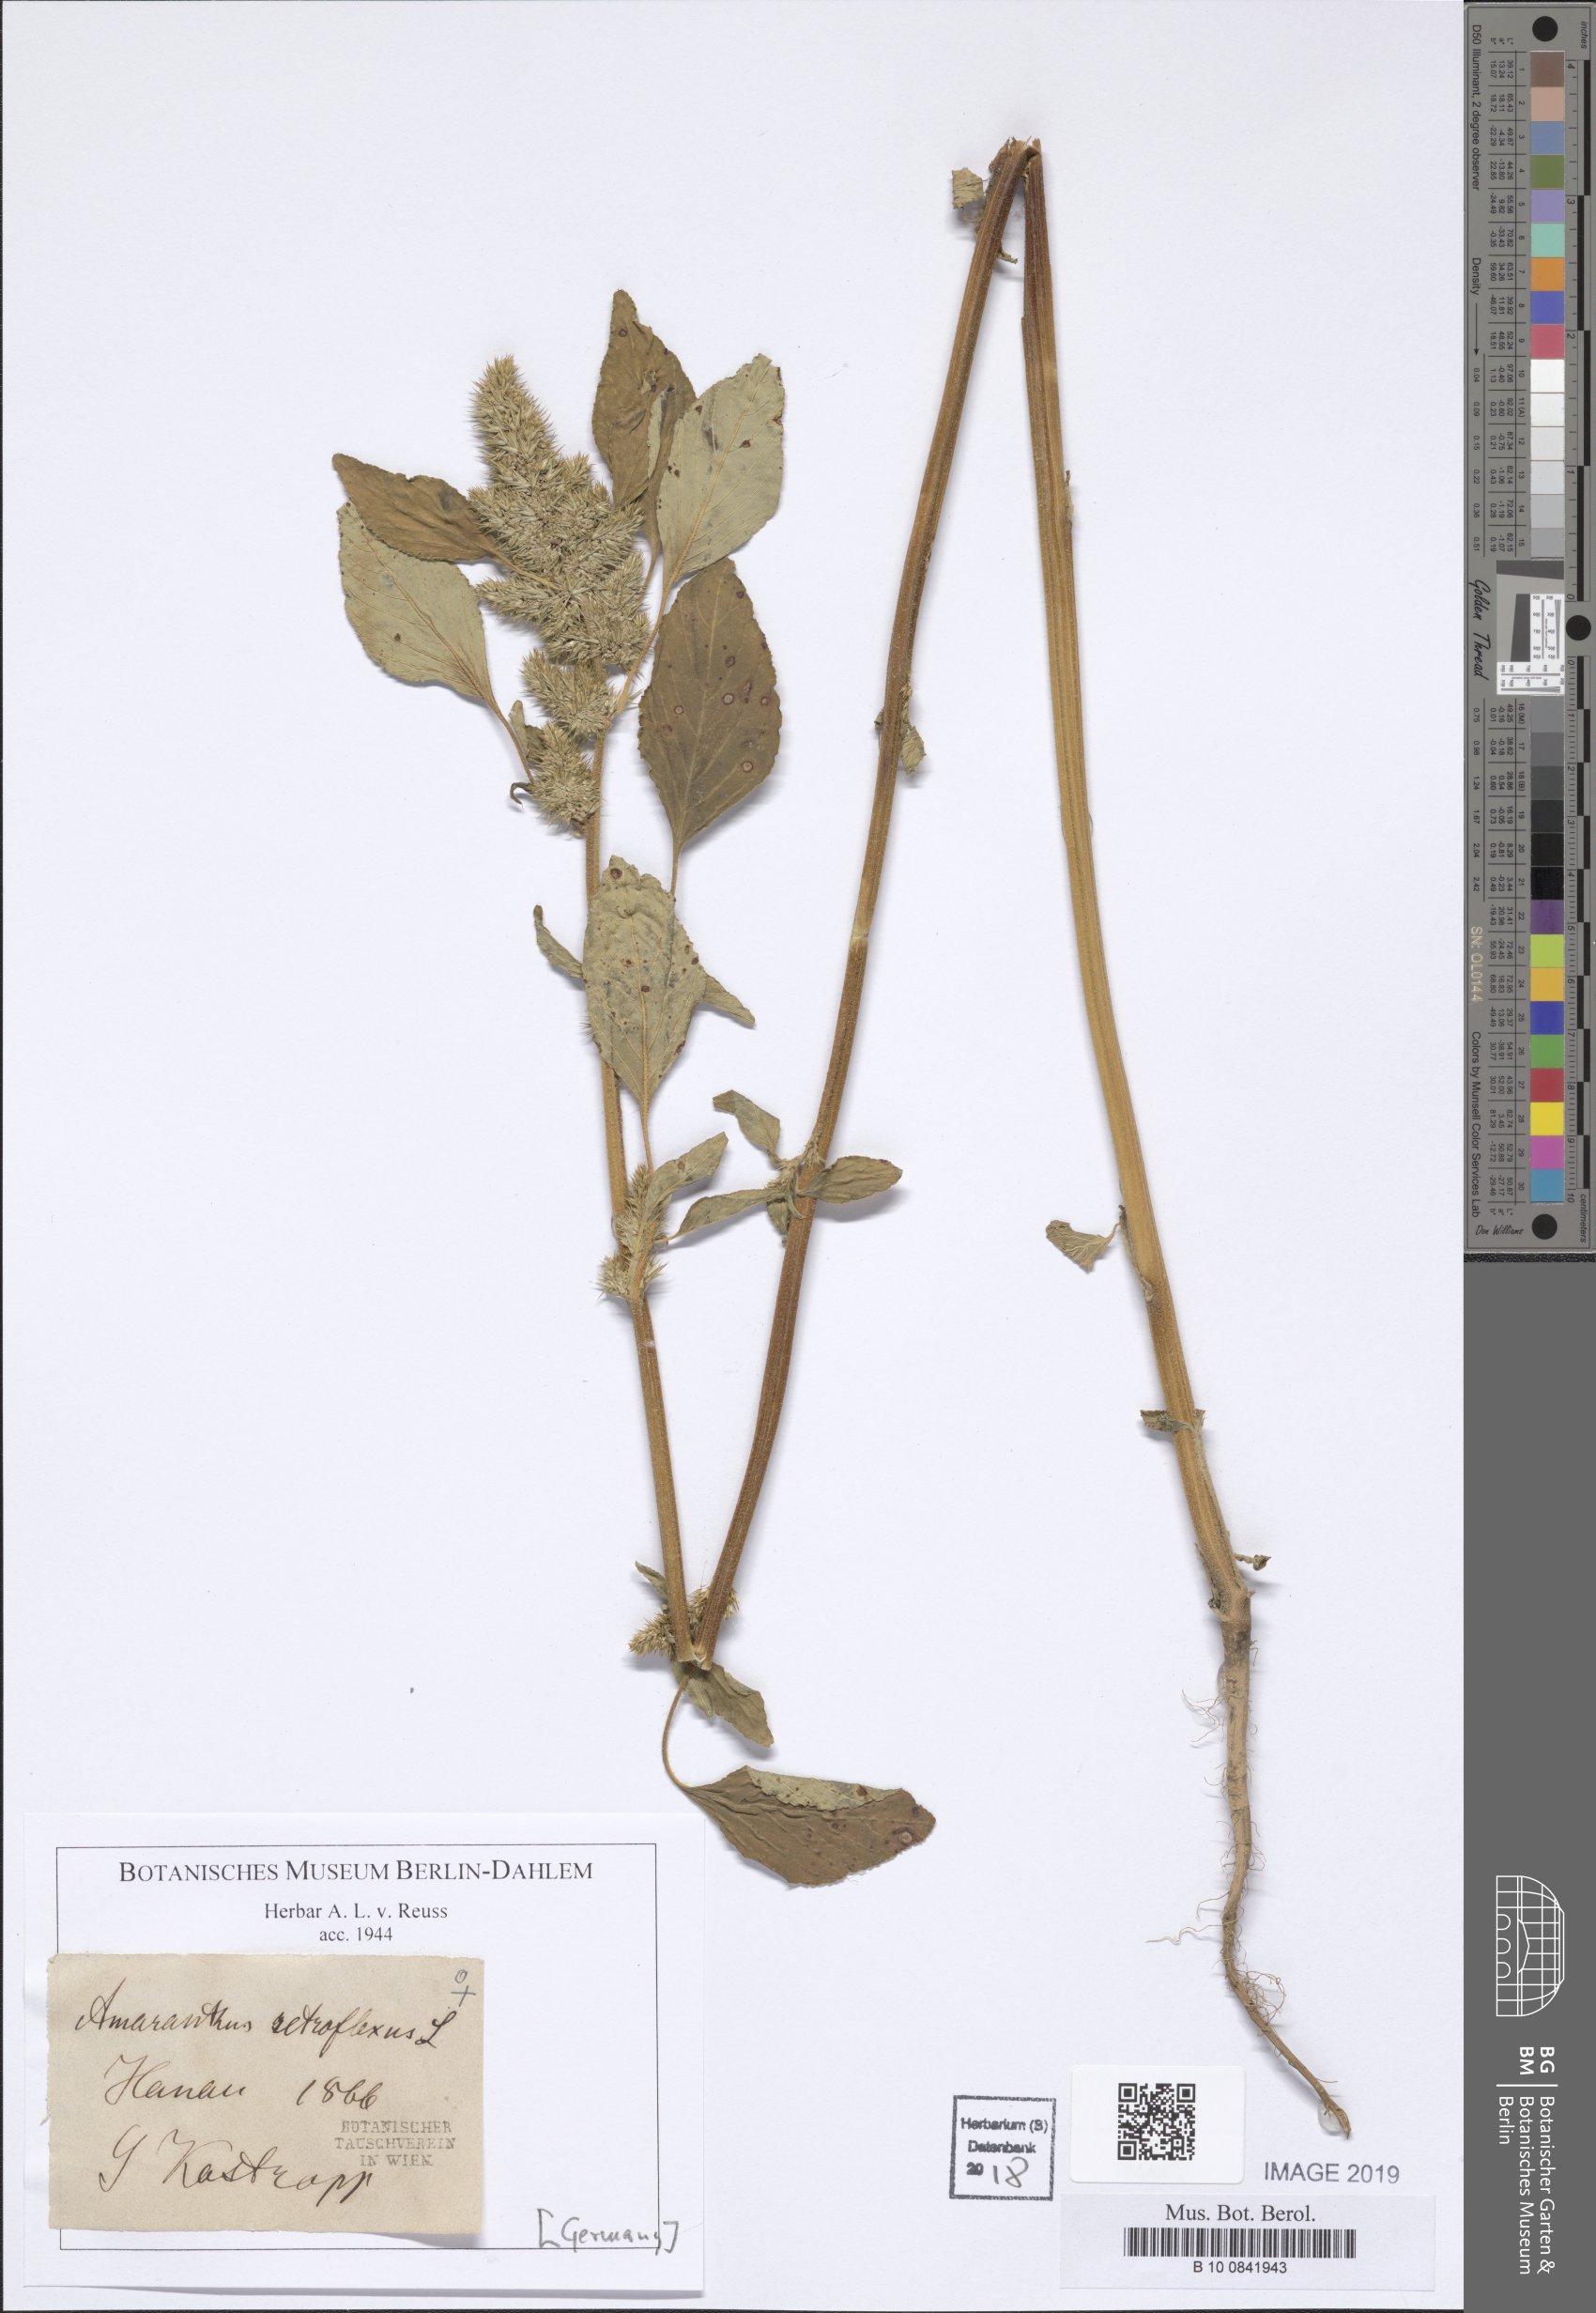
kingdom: Plantae
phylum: Tracheophyta
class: Magnoliopsida
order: Caryophyllales
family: Amaranthaceae
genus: Amaranthus
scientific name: Amaranthus retroflexus
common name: Redroot amaranth
